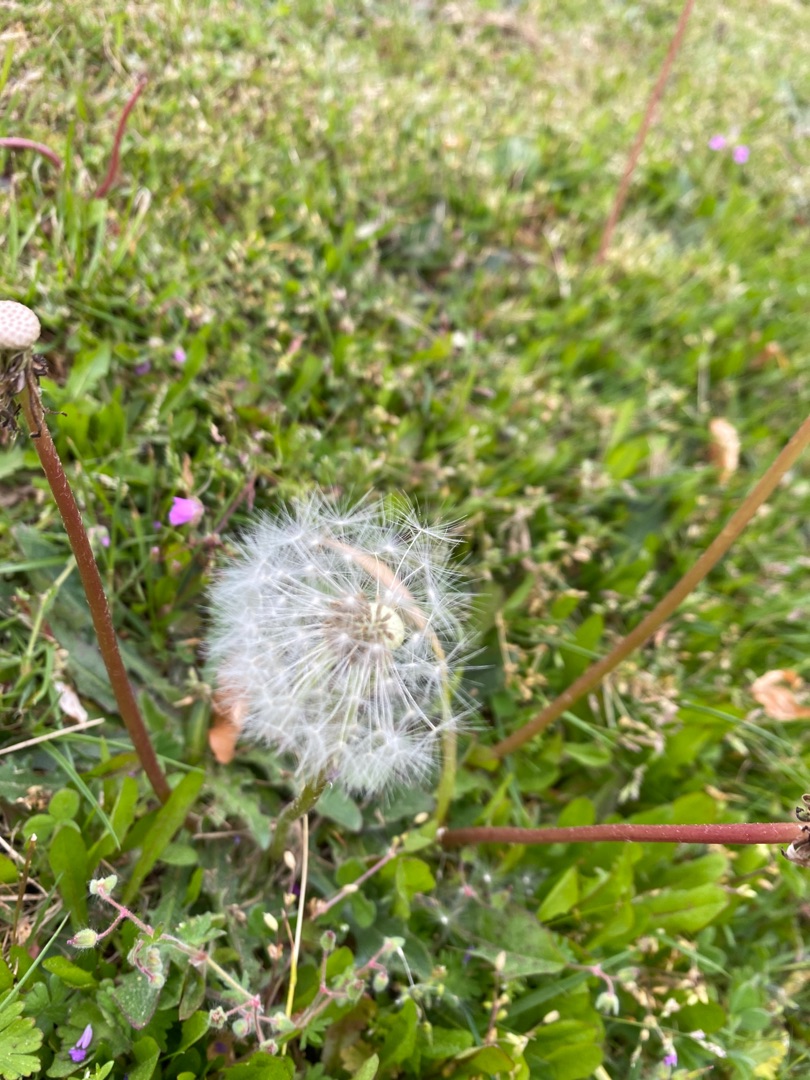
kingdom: Plantae
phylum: Tracheophyta
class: Magnoliopsida
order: Asterales
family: Asteraceae
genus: Taraxacum
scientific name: Taraxacum
